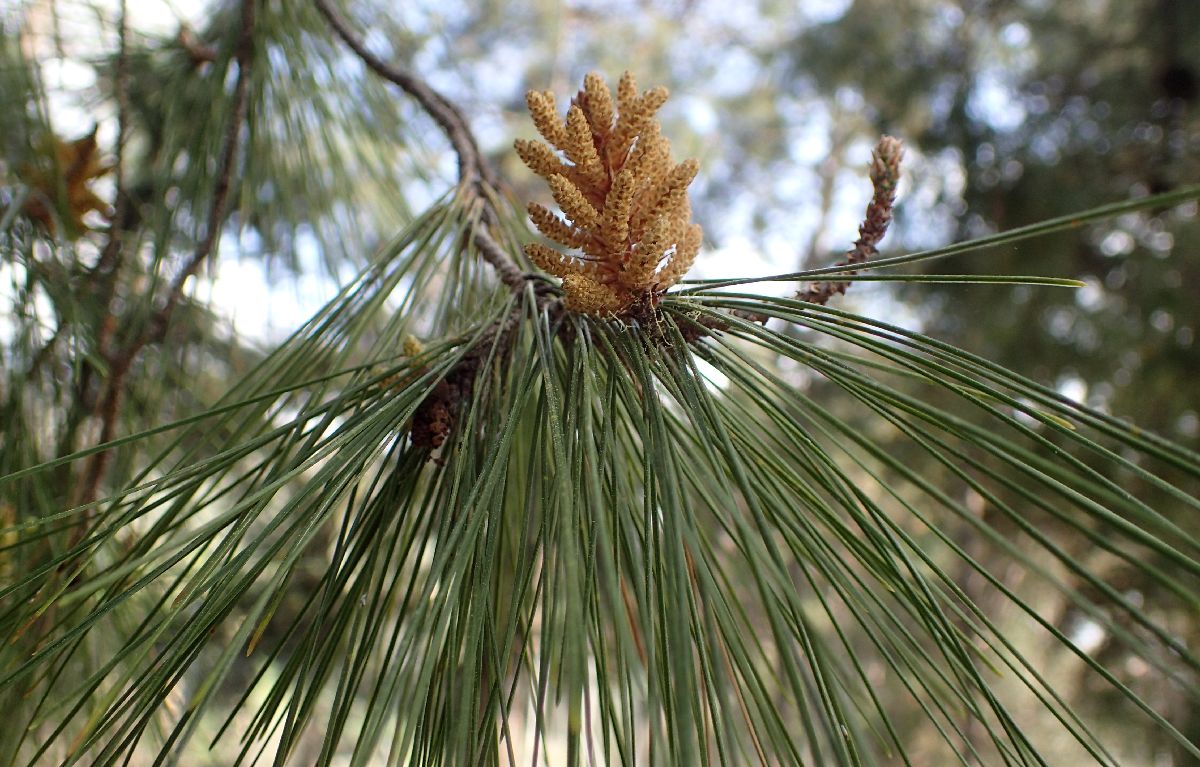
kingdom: Plantae
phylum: Tracheophyta
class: Pinopsida
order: Pinales
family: Pinaceae
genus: Pinus
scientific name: Pinus halepensis
